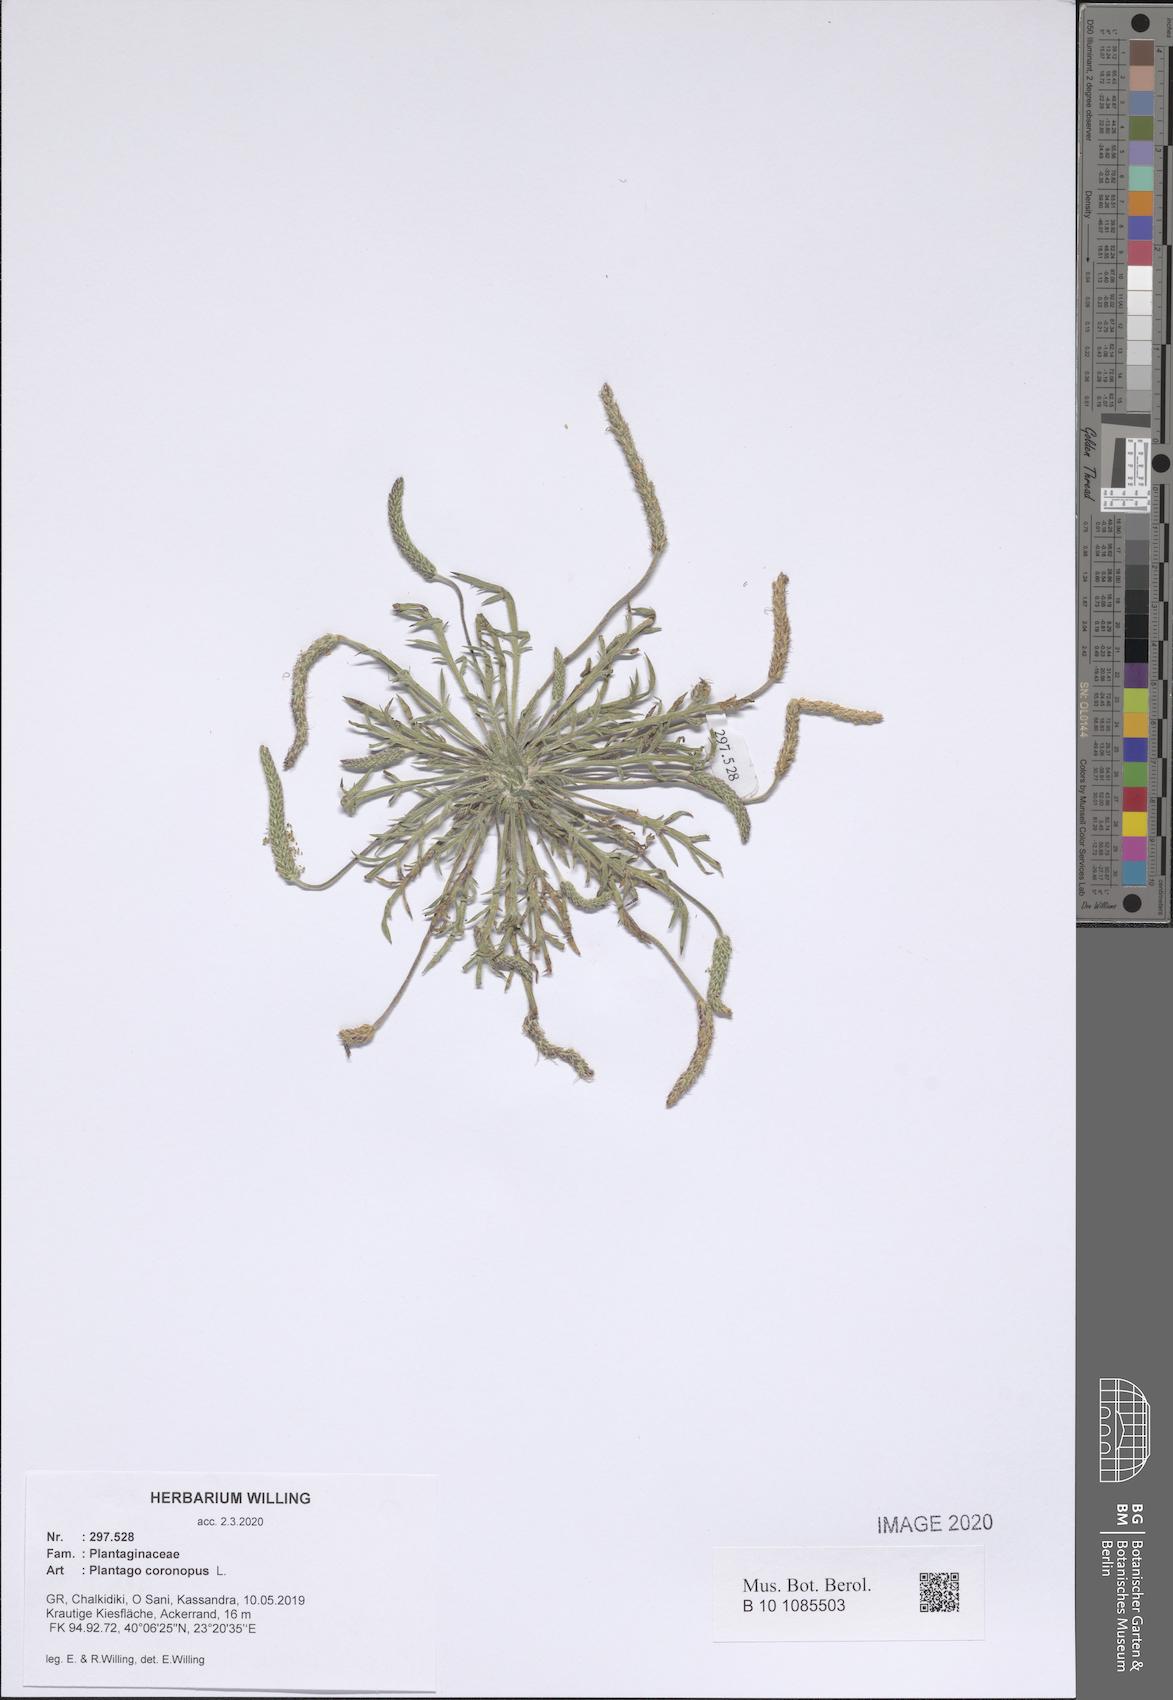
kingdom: Plantae
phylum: Tracheophyta
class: Magnoliopsida
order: Lamiales
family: Plantaginaceae
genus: Plantago
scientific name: Plantago coronopus
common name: Buck's-horn plantain
